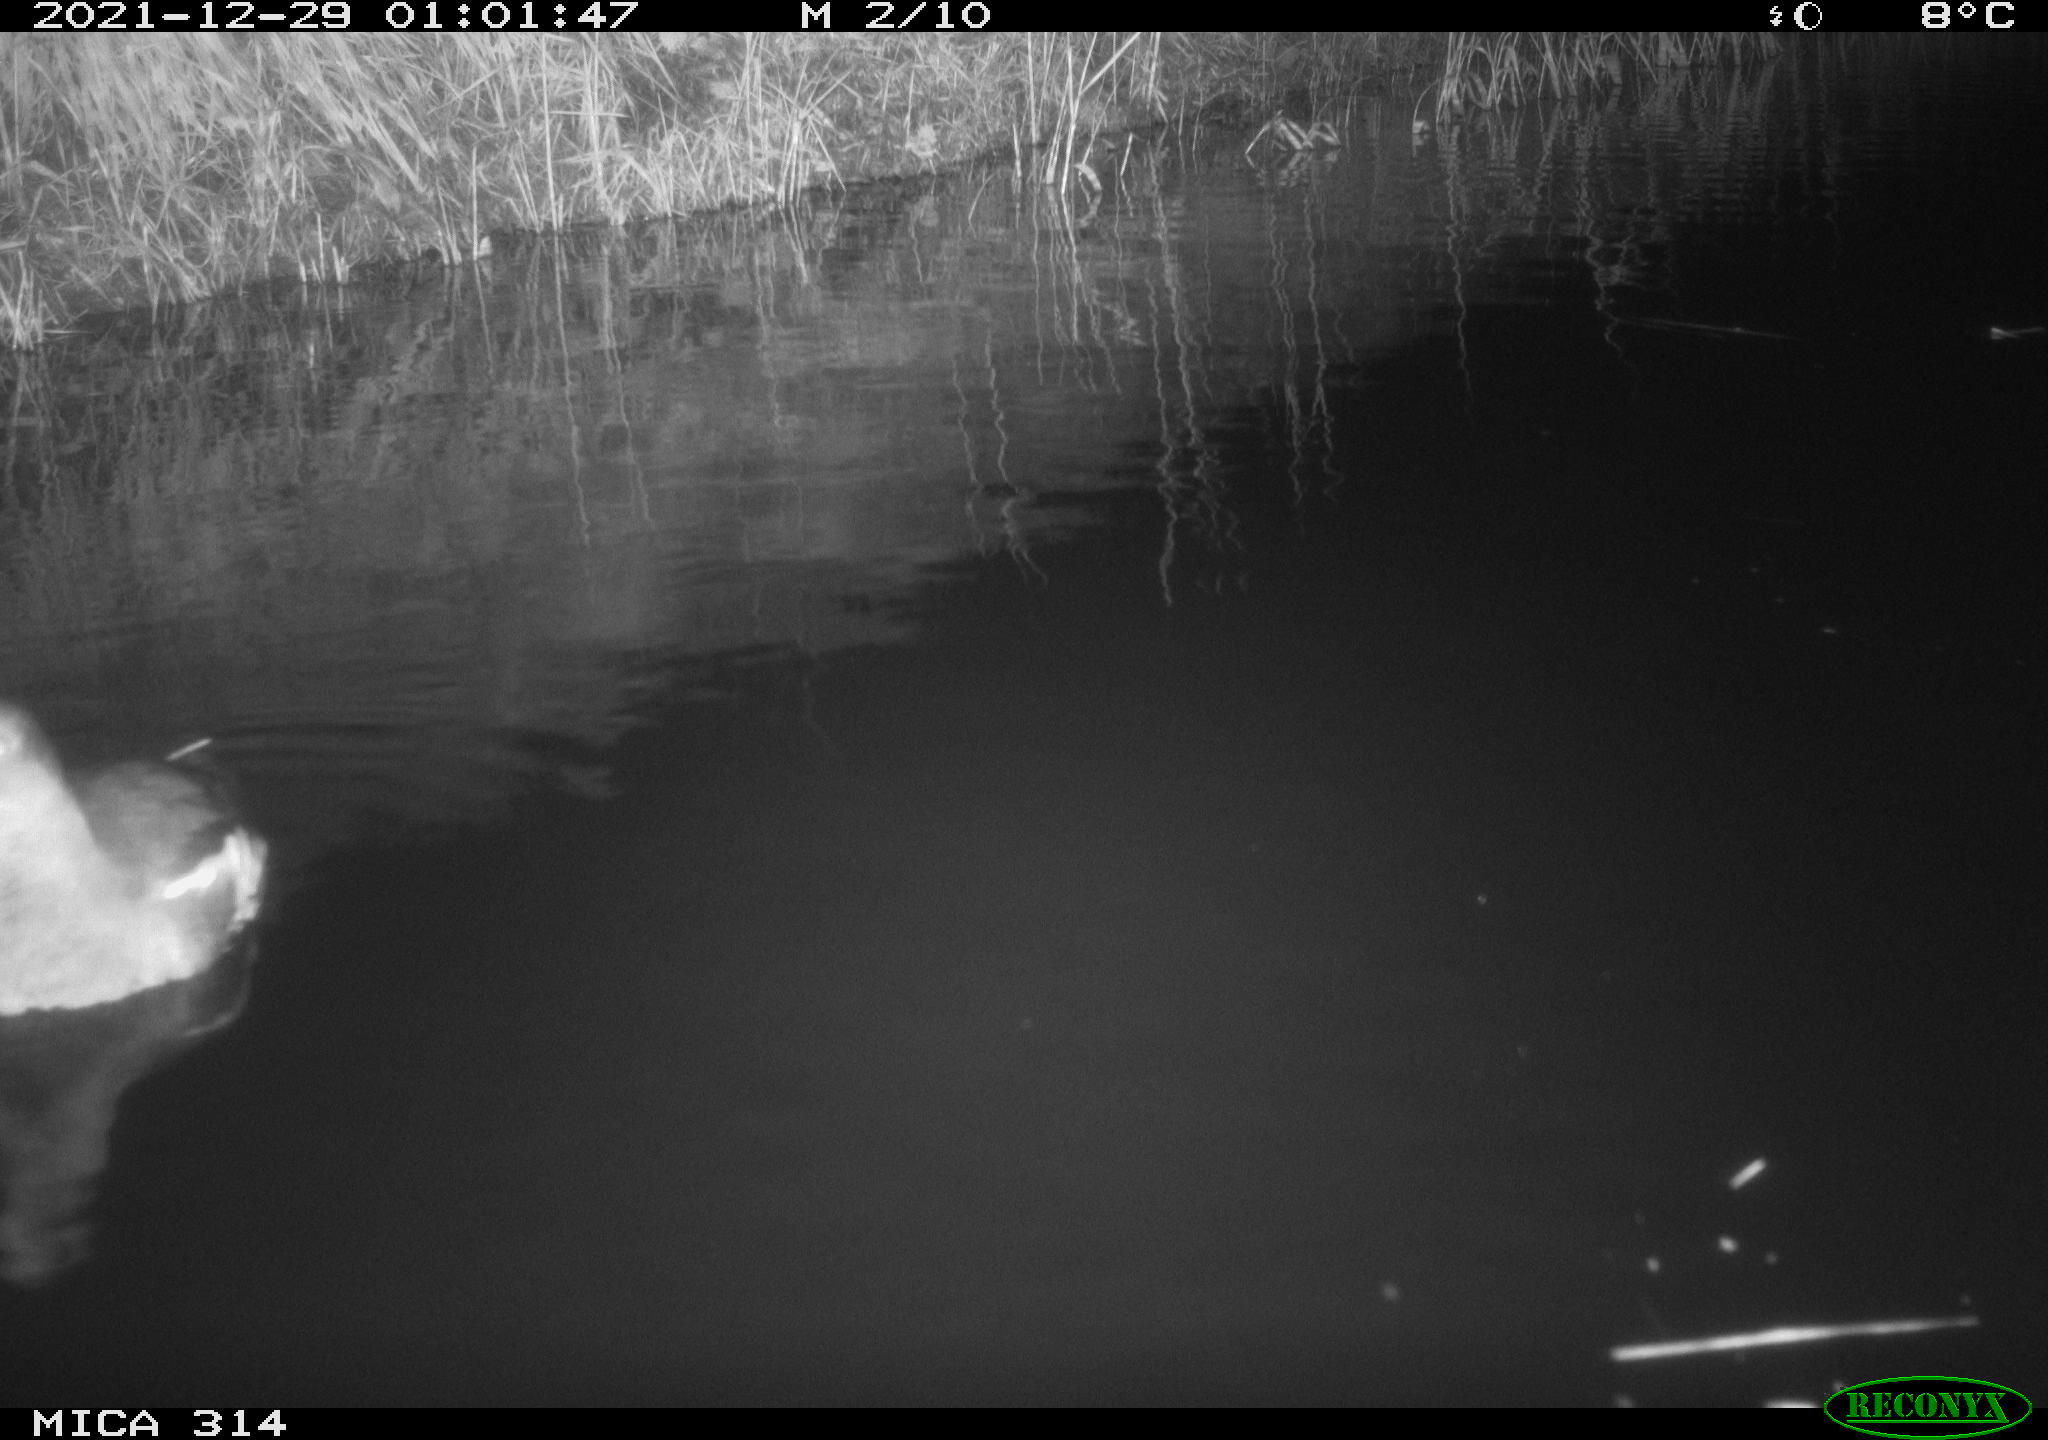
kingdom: Animalia
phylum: Chordata
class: Aves
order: Gruiformes
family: Rallidae
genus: Gallinula
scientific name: Gallinula chloropus
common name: Common moorhen
